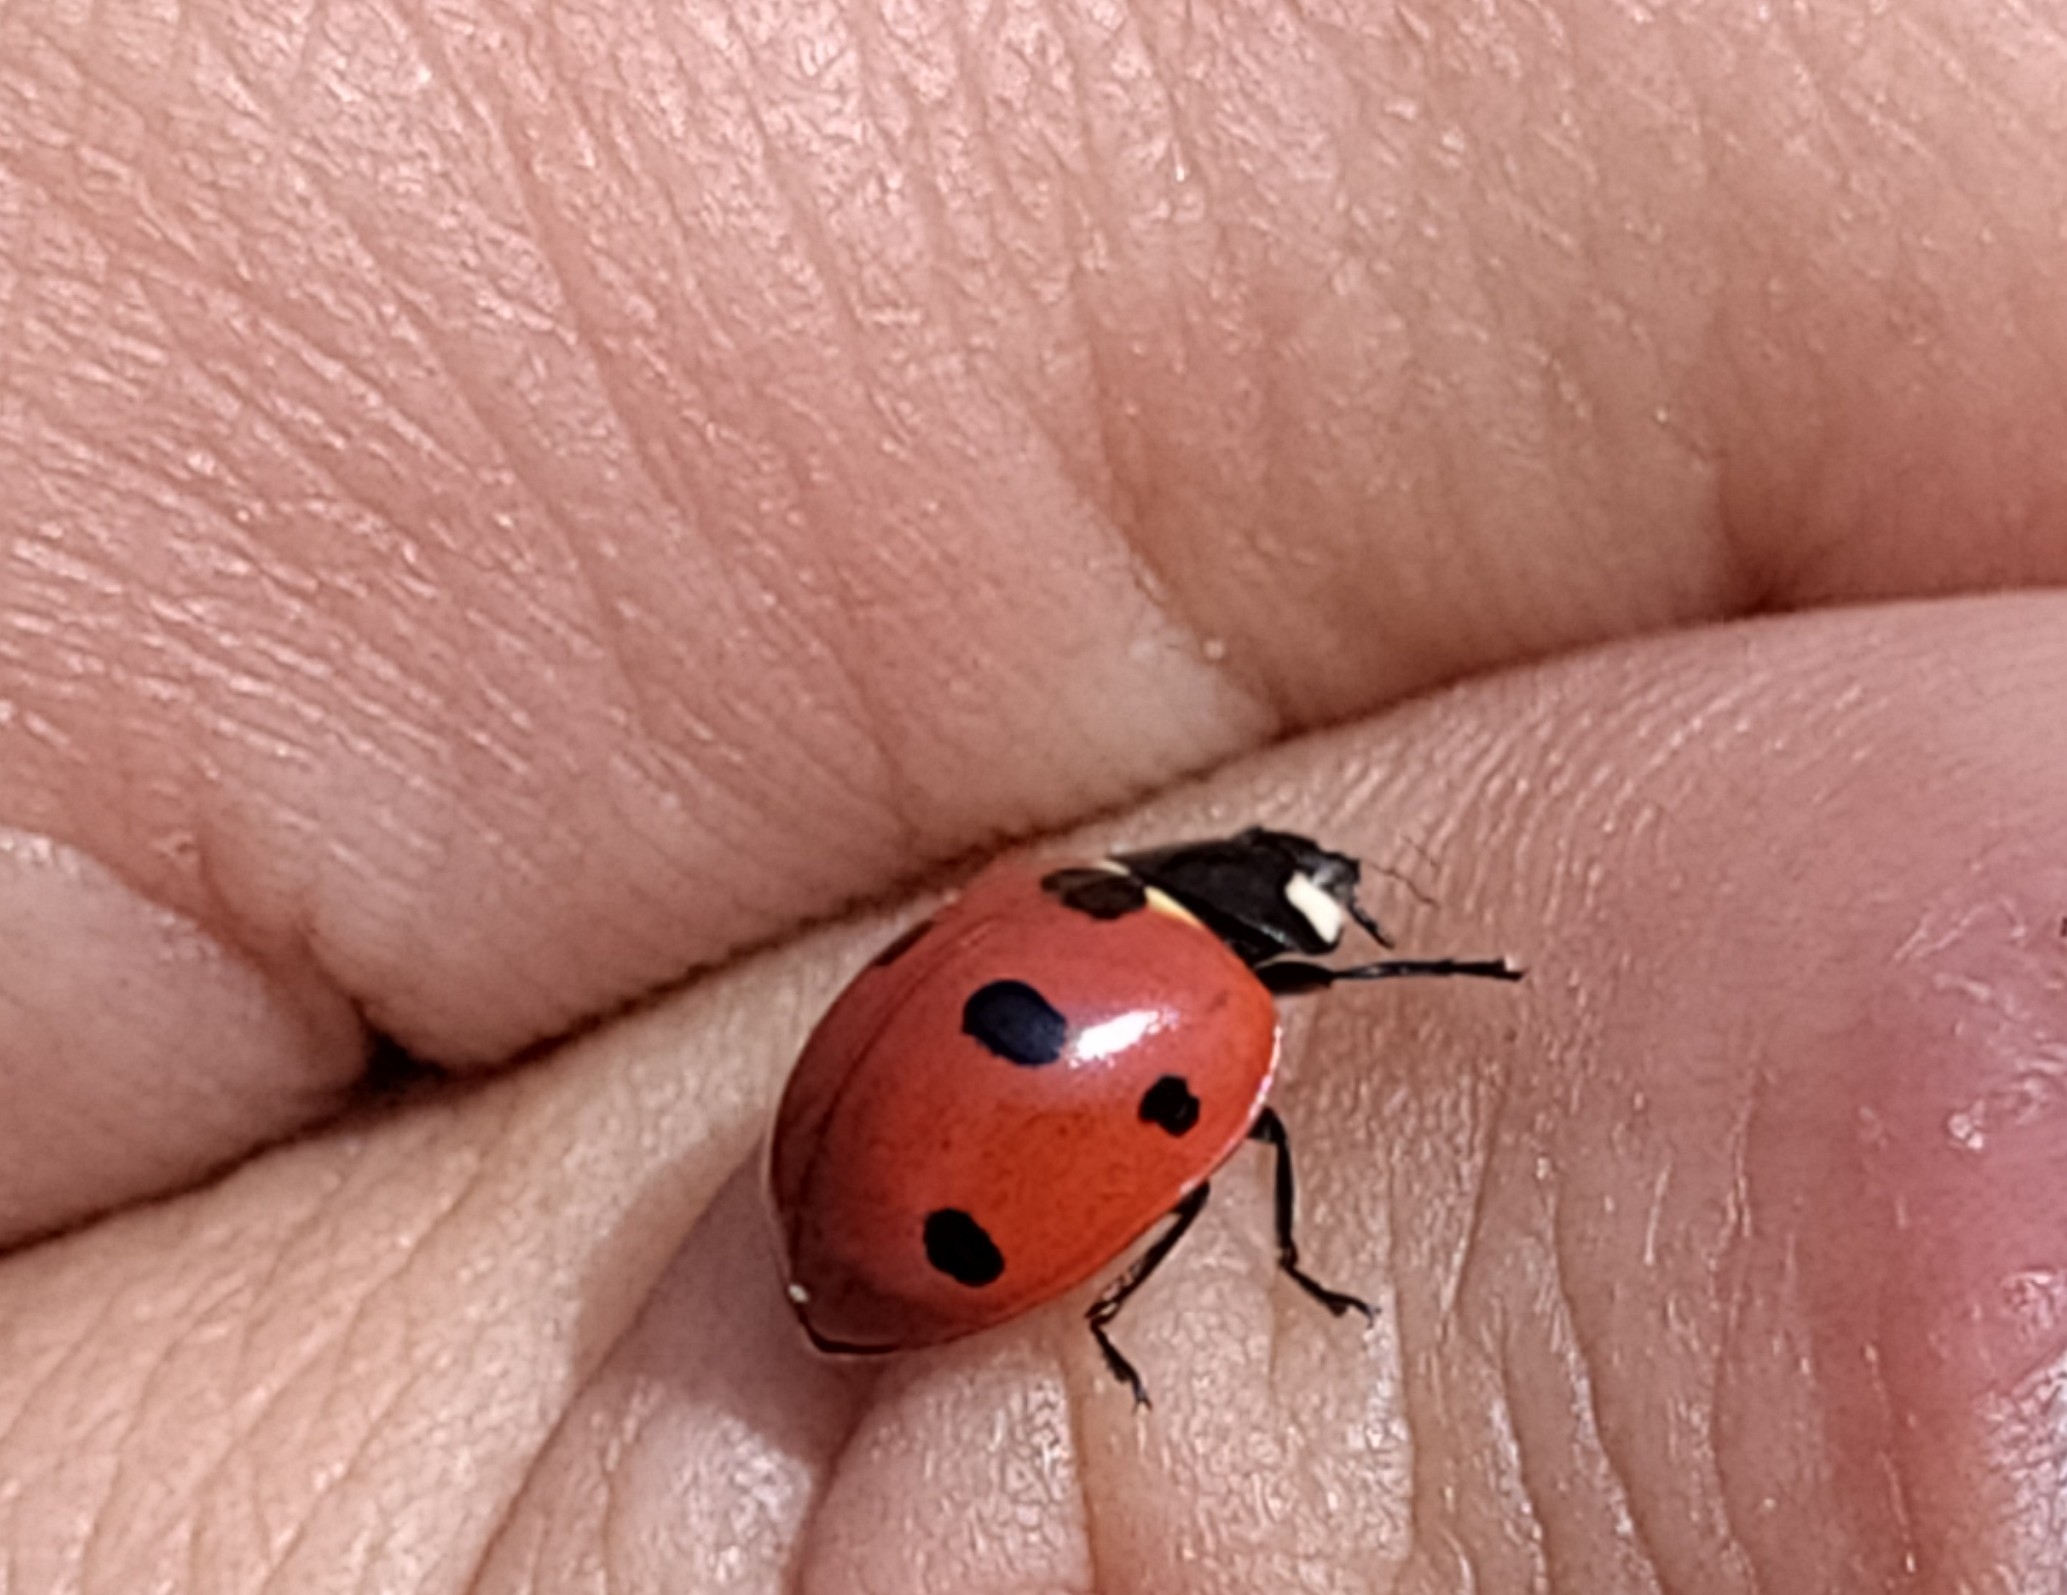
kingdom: Animalia
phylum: Arthropoda
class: Insecta
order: Coleoptera
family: Coccinellidae
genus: Coccinella
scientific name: Coccinella septempunctata
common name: Syvplettet mariehøne
